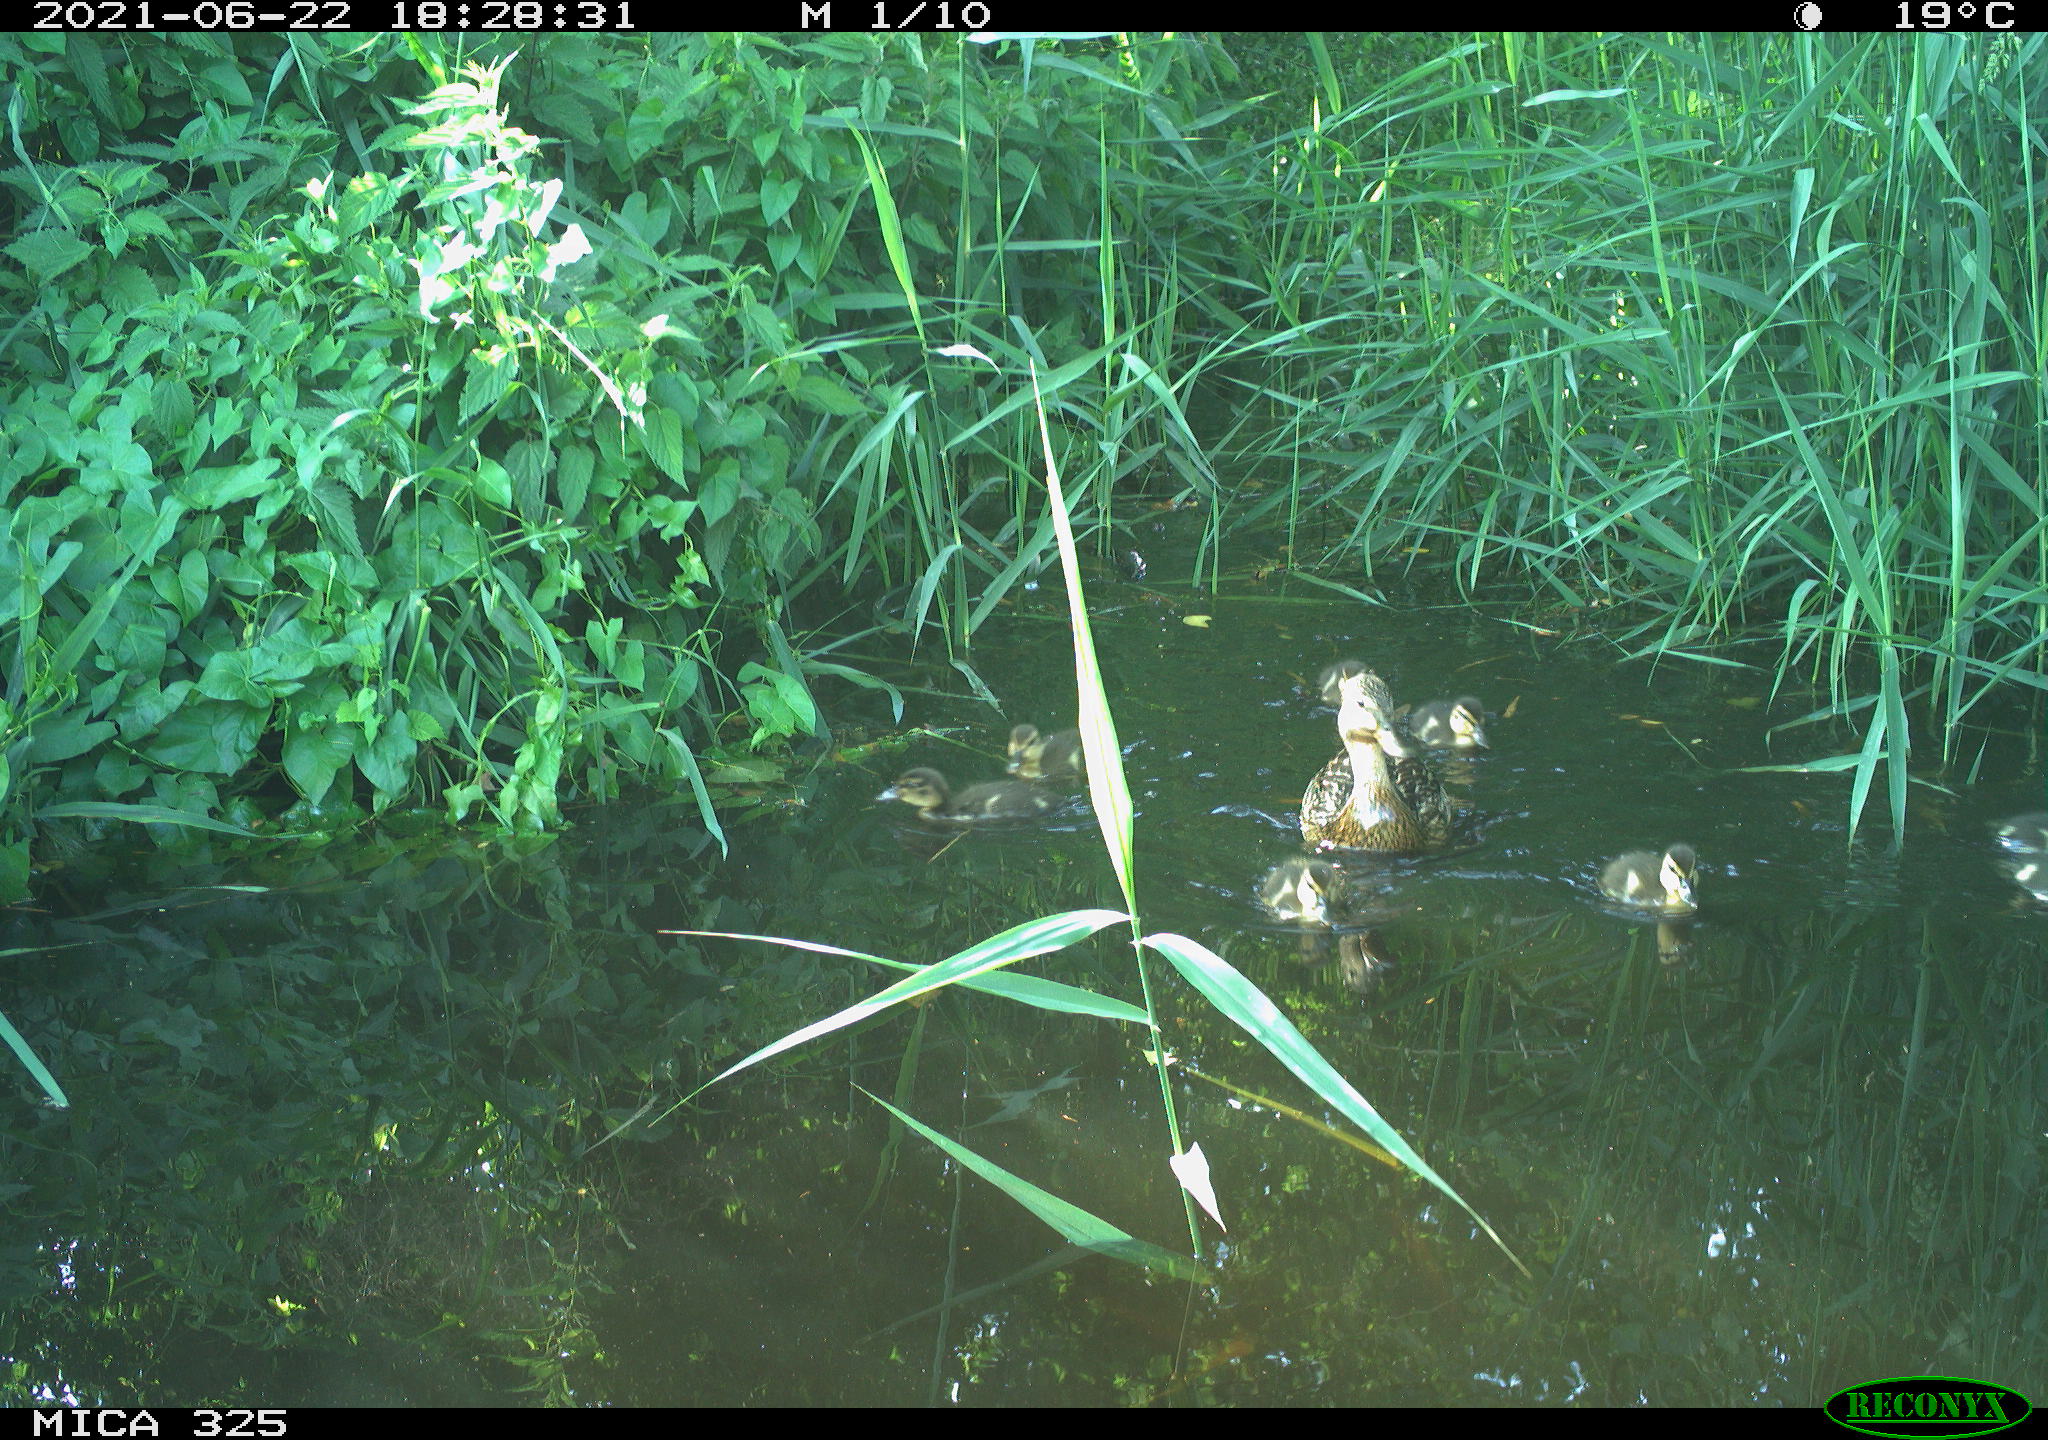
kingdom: Animalia
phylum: Chordata
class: Aves
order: Anseriformes
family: Anatidae
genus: Anas
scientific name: Anas platyrhynchos
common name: Mallard
